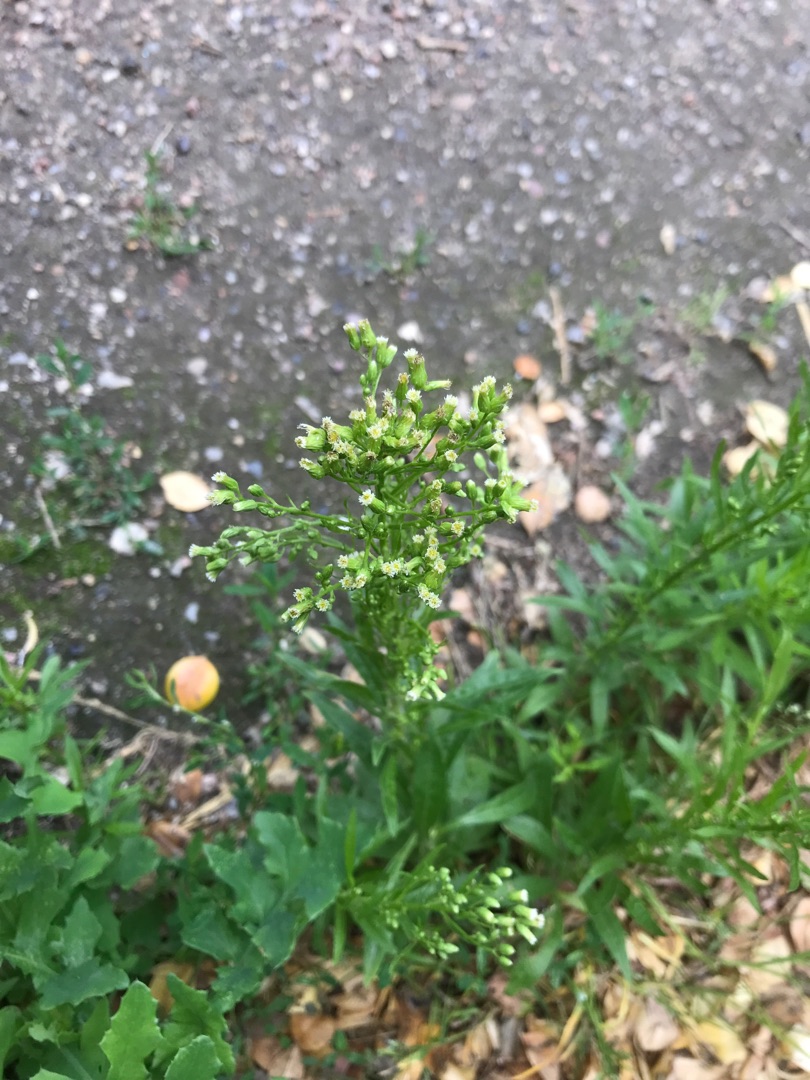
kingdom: Plantae
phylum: Tracheophyta
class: Magnoliopsida
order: Asterales
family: Asteraceae
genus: Erigeron
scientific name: Erigeron canadensis
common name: Kanadisk bakkestjerne
